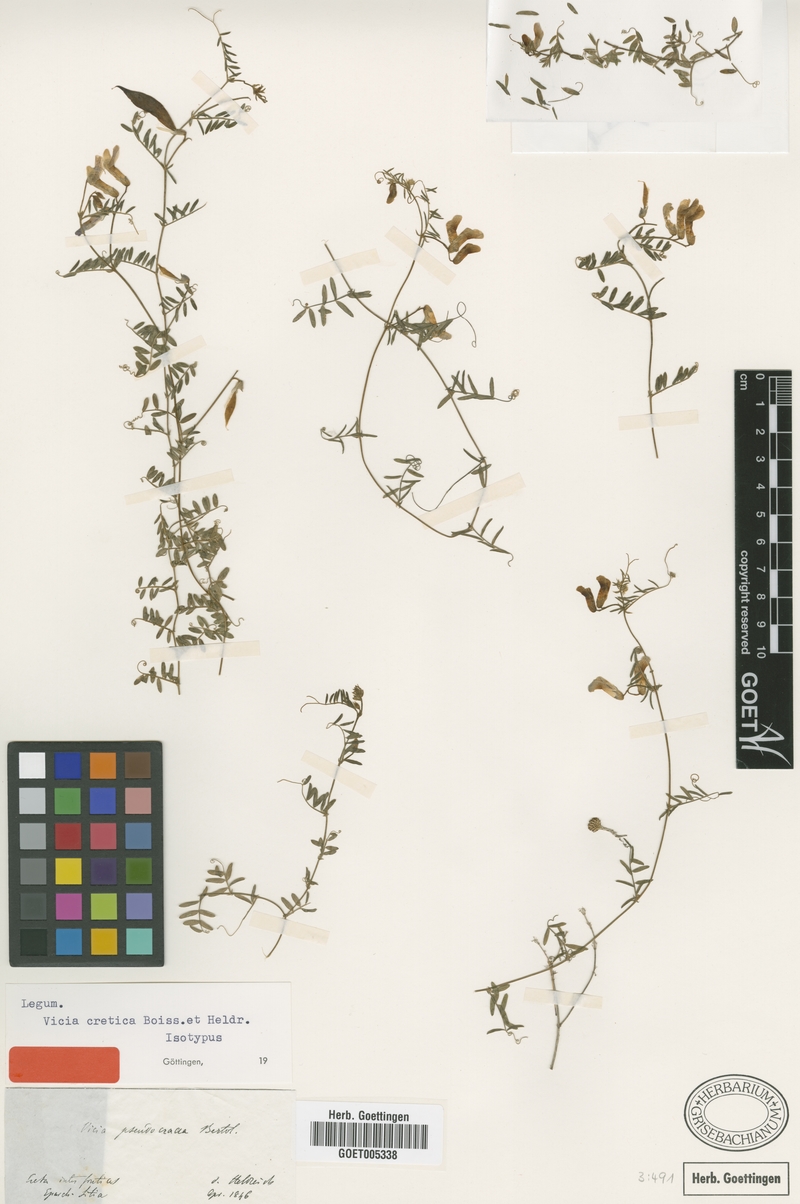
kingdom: Plantae
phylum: Tracheophyta
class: Magnoliopsida
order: Fabales
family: Fabaceae
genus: Vicia
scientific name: Vicia cretica
